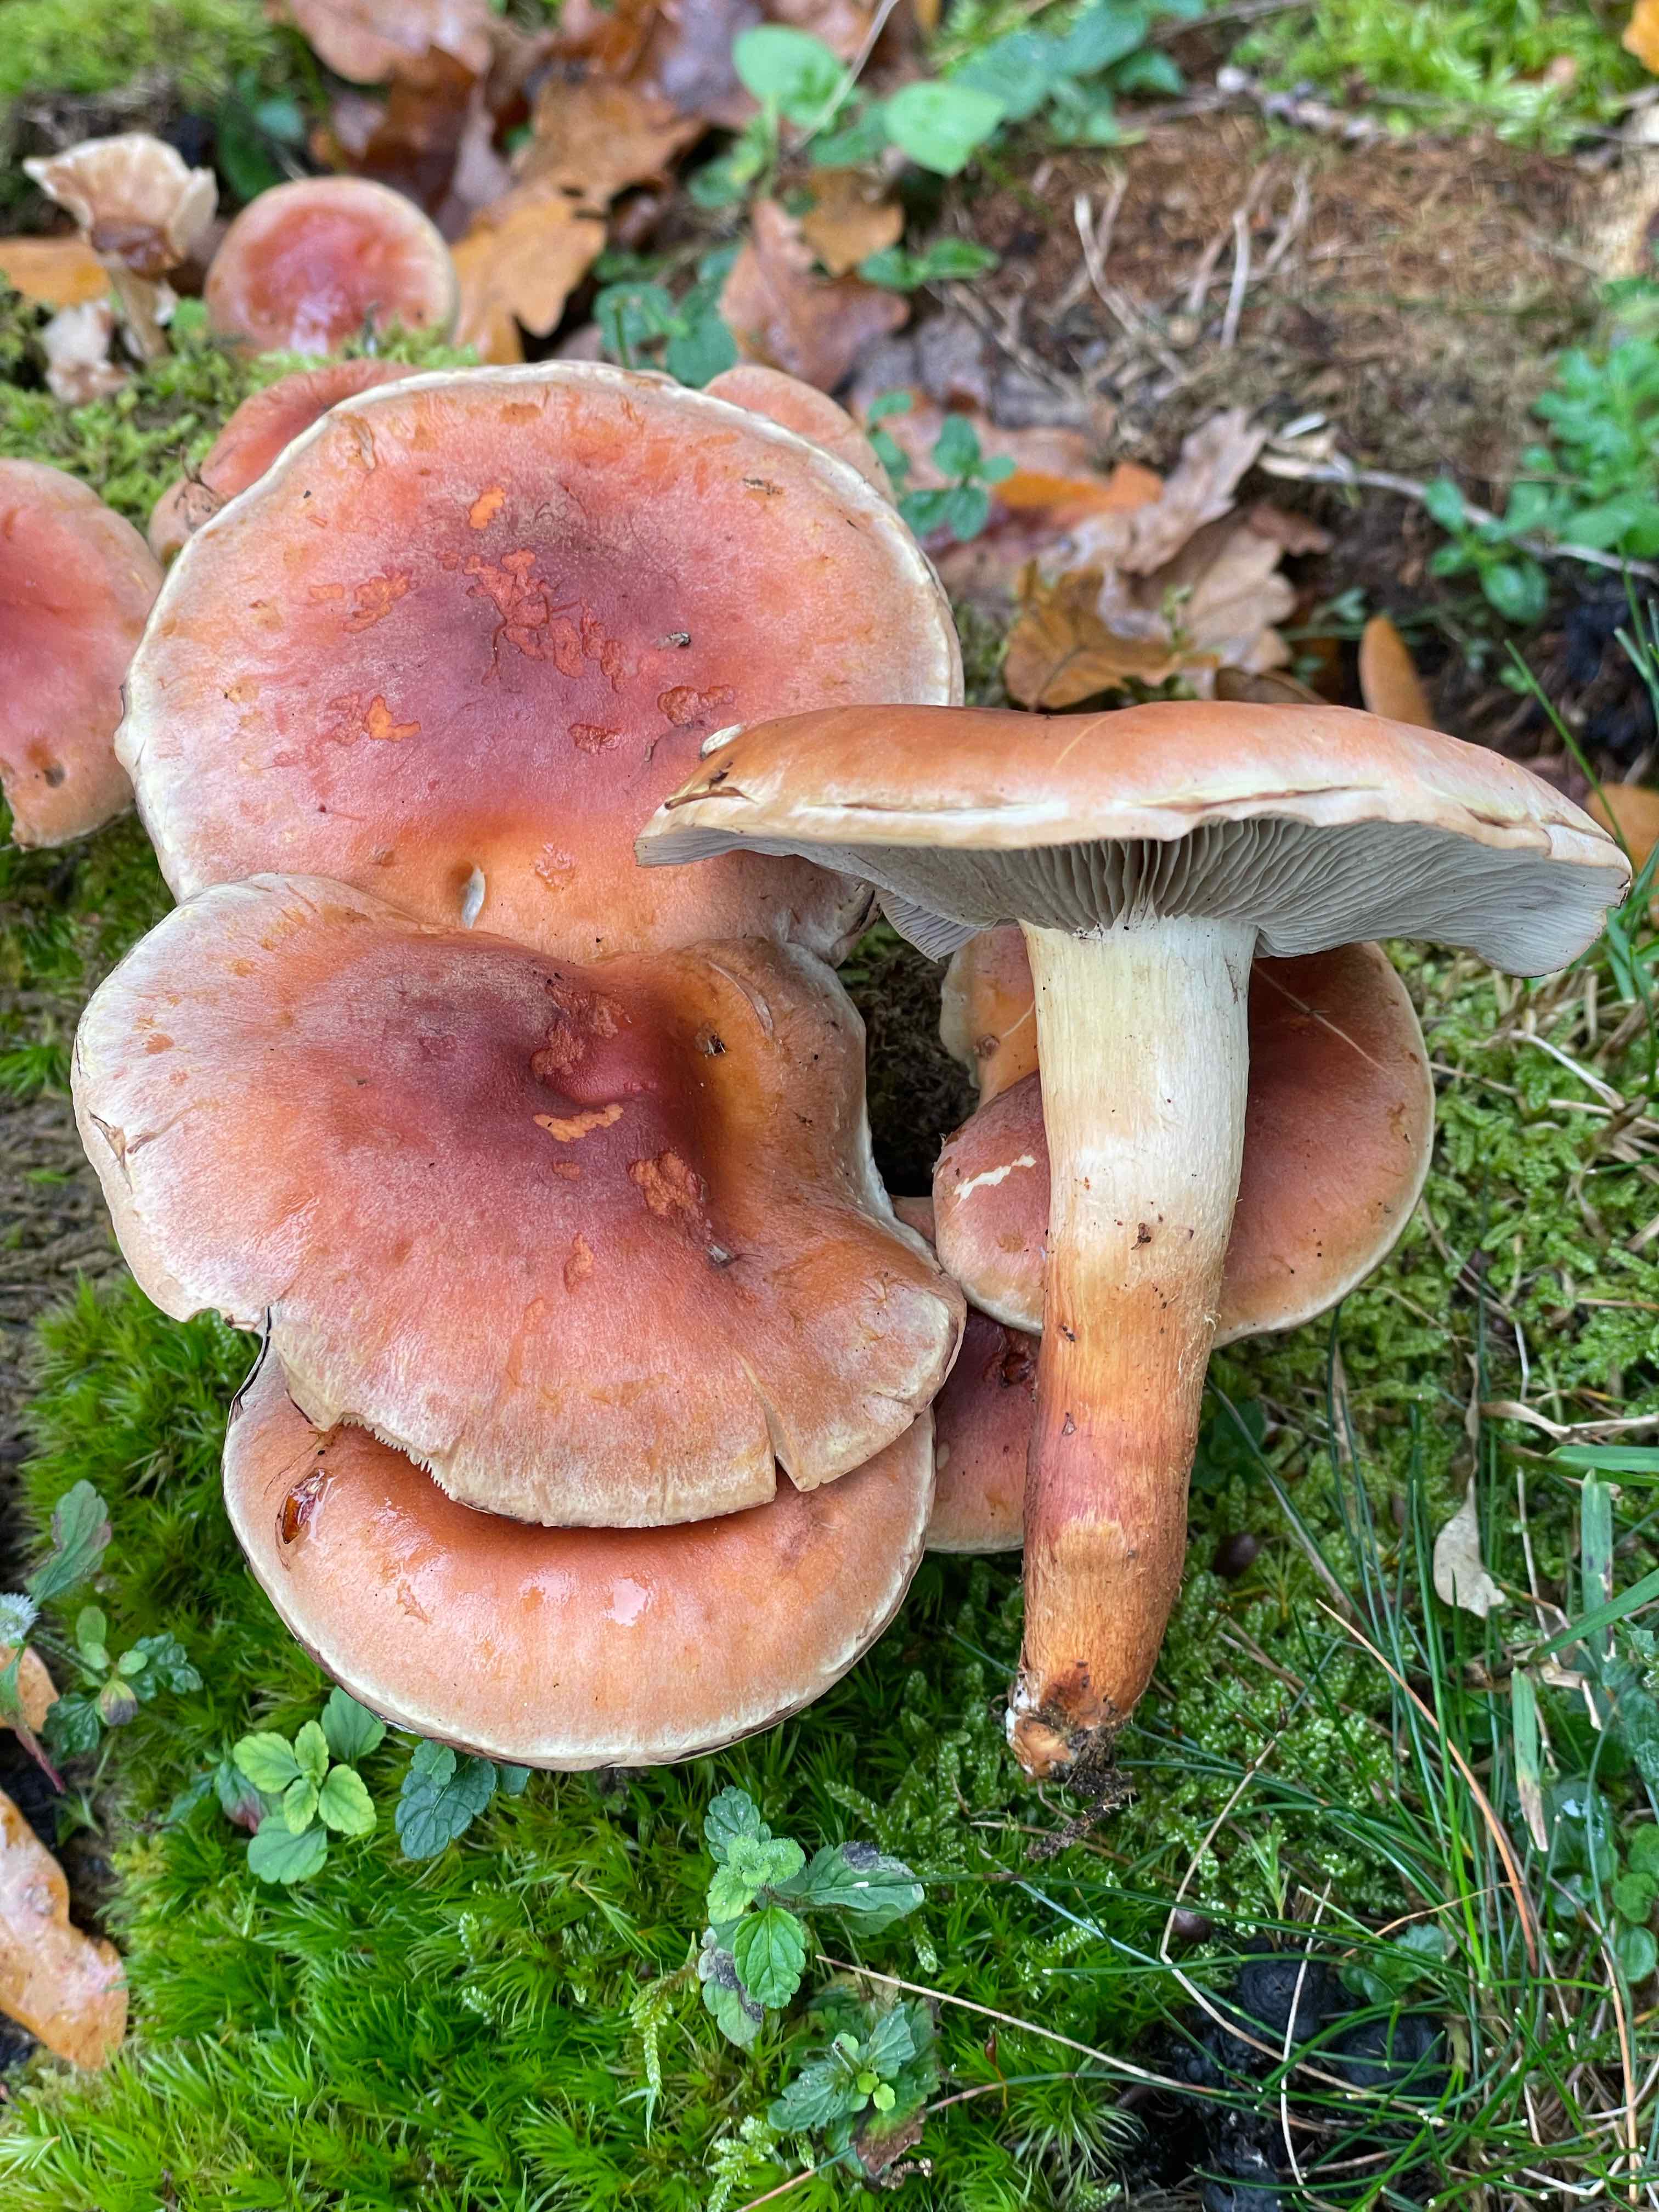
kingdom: Fungi
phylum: Basidiomycota
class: Agaricomycetes
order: Agaricales
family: Strophariaceae
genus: Hypholoma
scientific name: Hypholoma lateritium
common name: teglrød svovlhat
